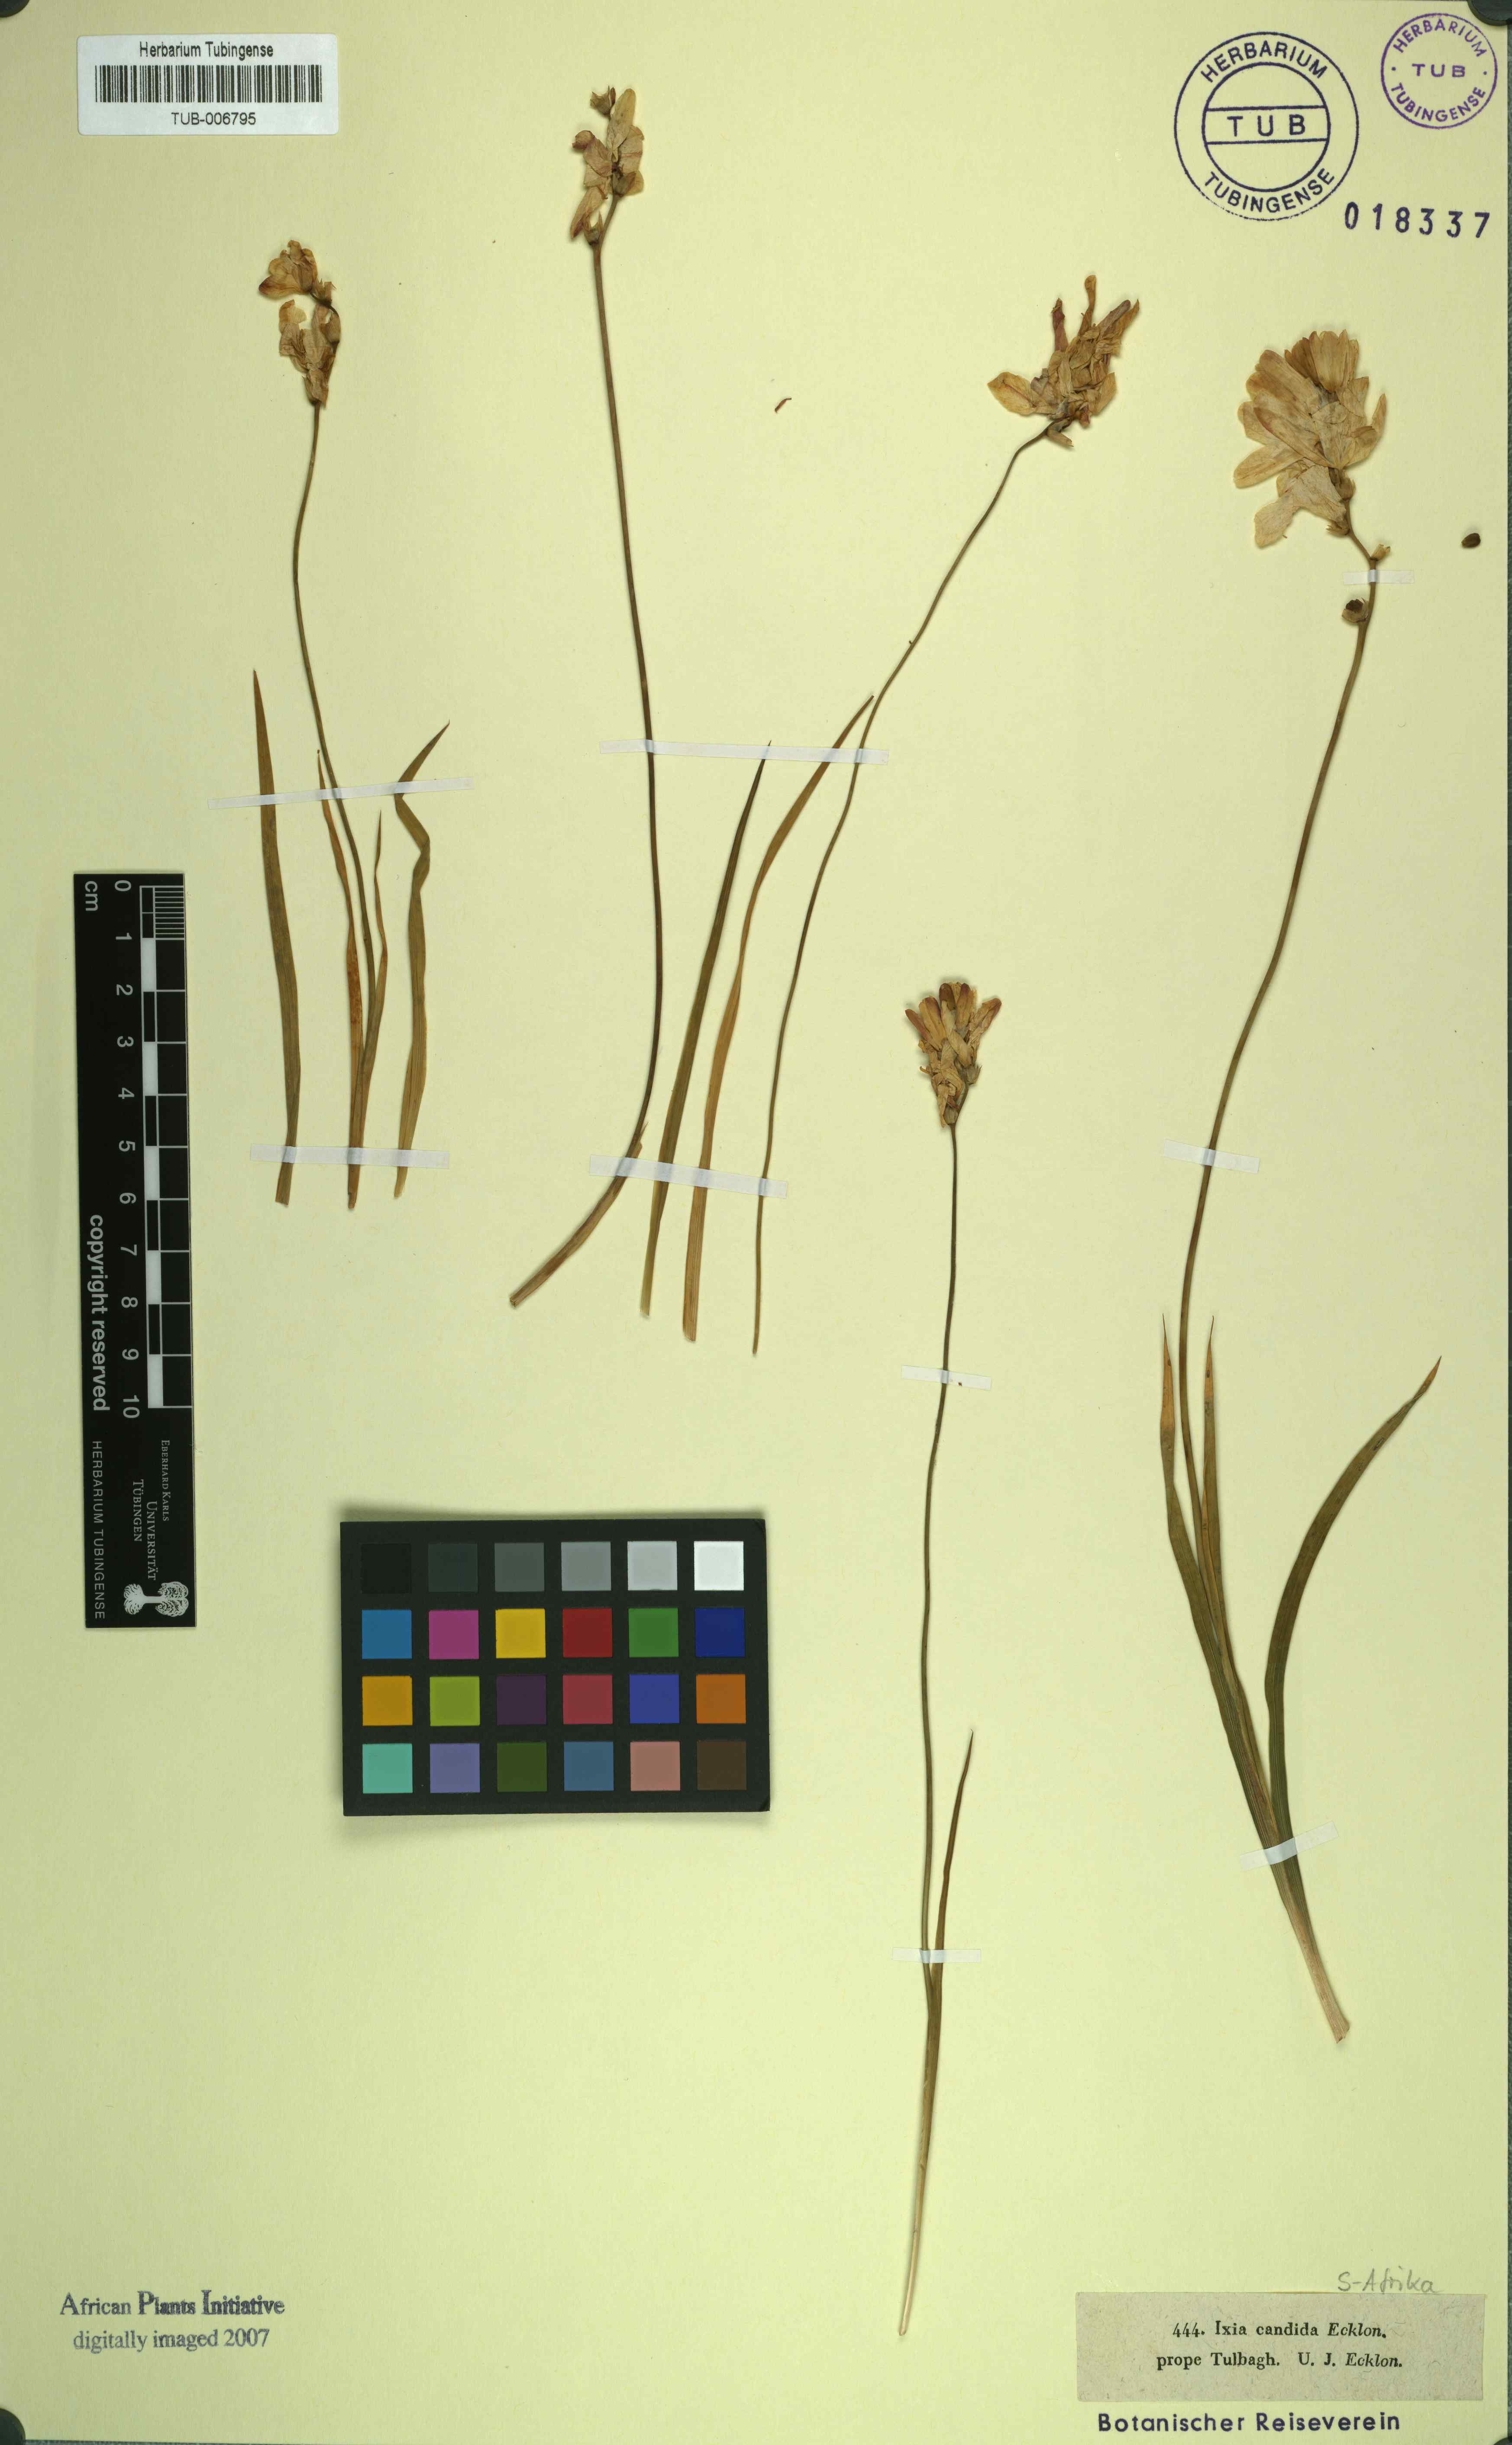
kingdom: Plantae
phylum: Tracheophyta
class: Liliopsida
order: Asparagales
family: Iridaceae
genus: Ixia
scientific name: Ixia
